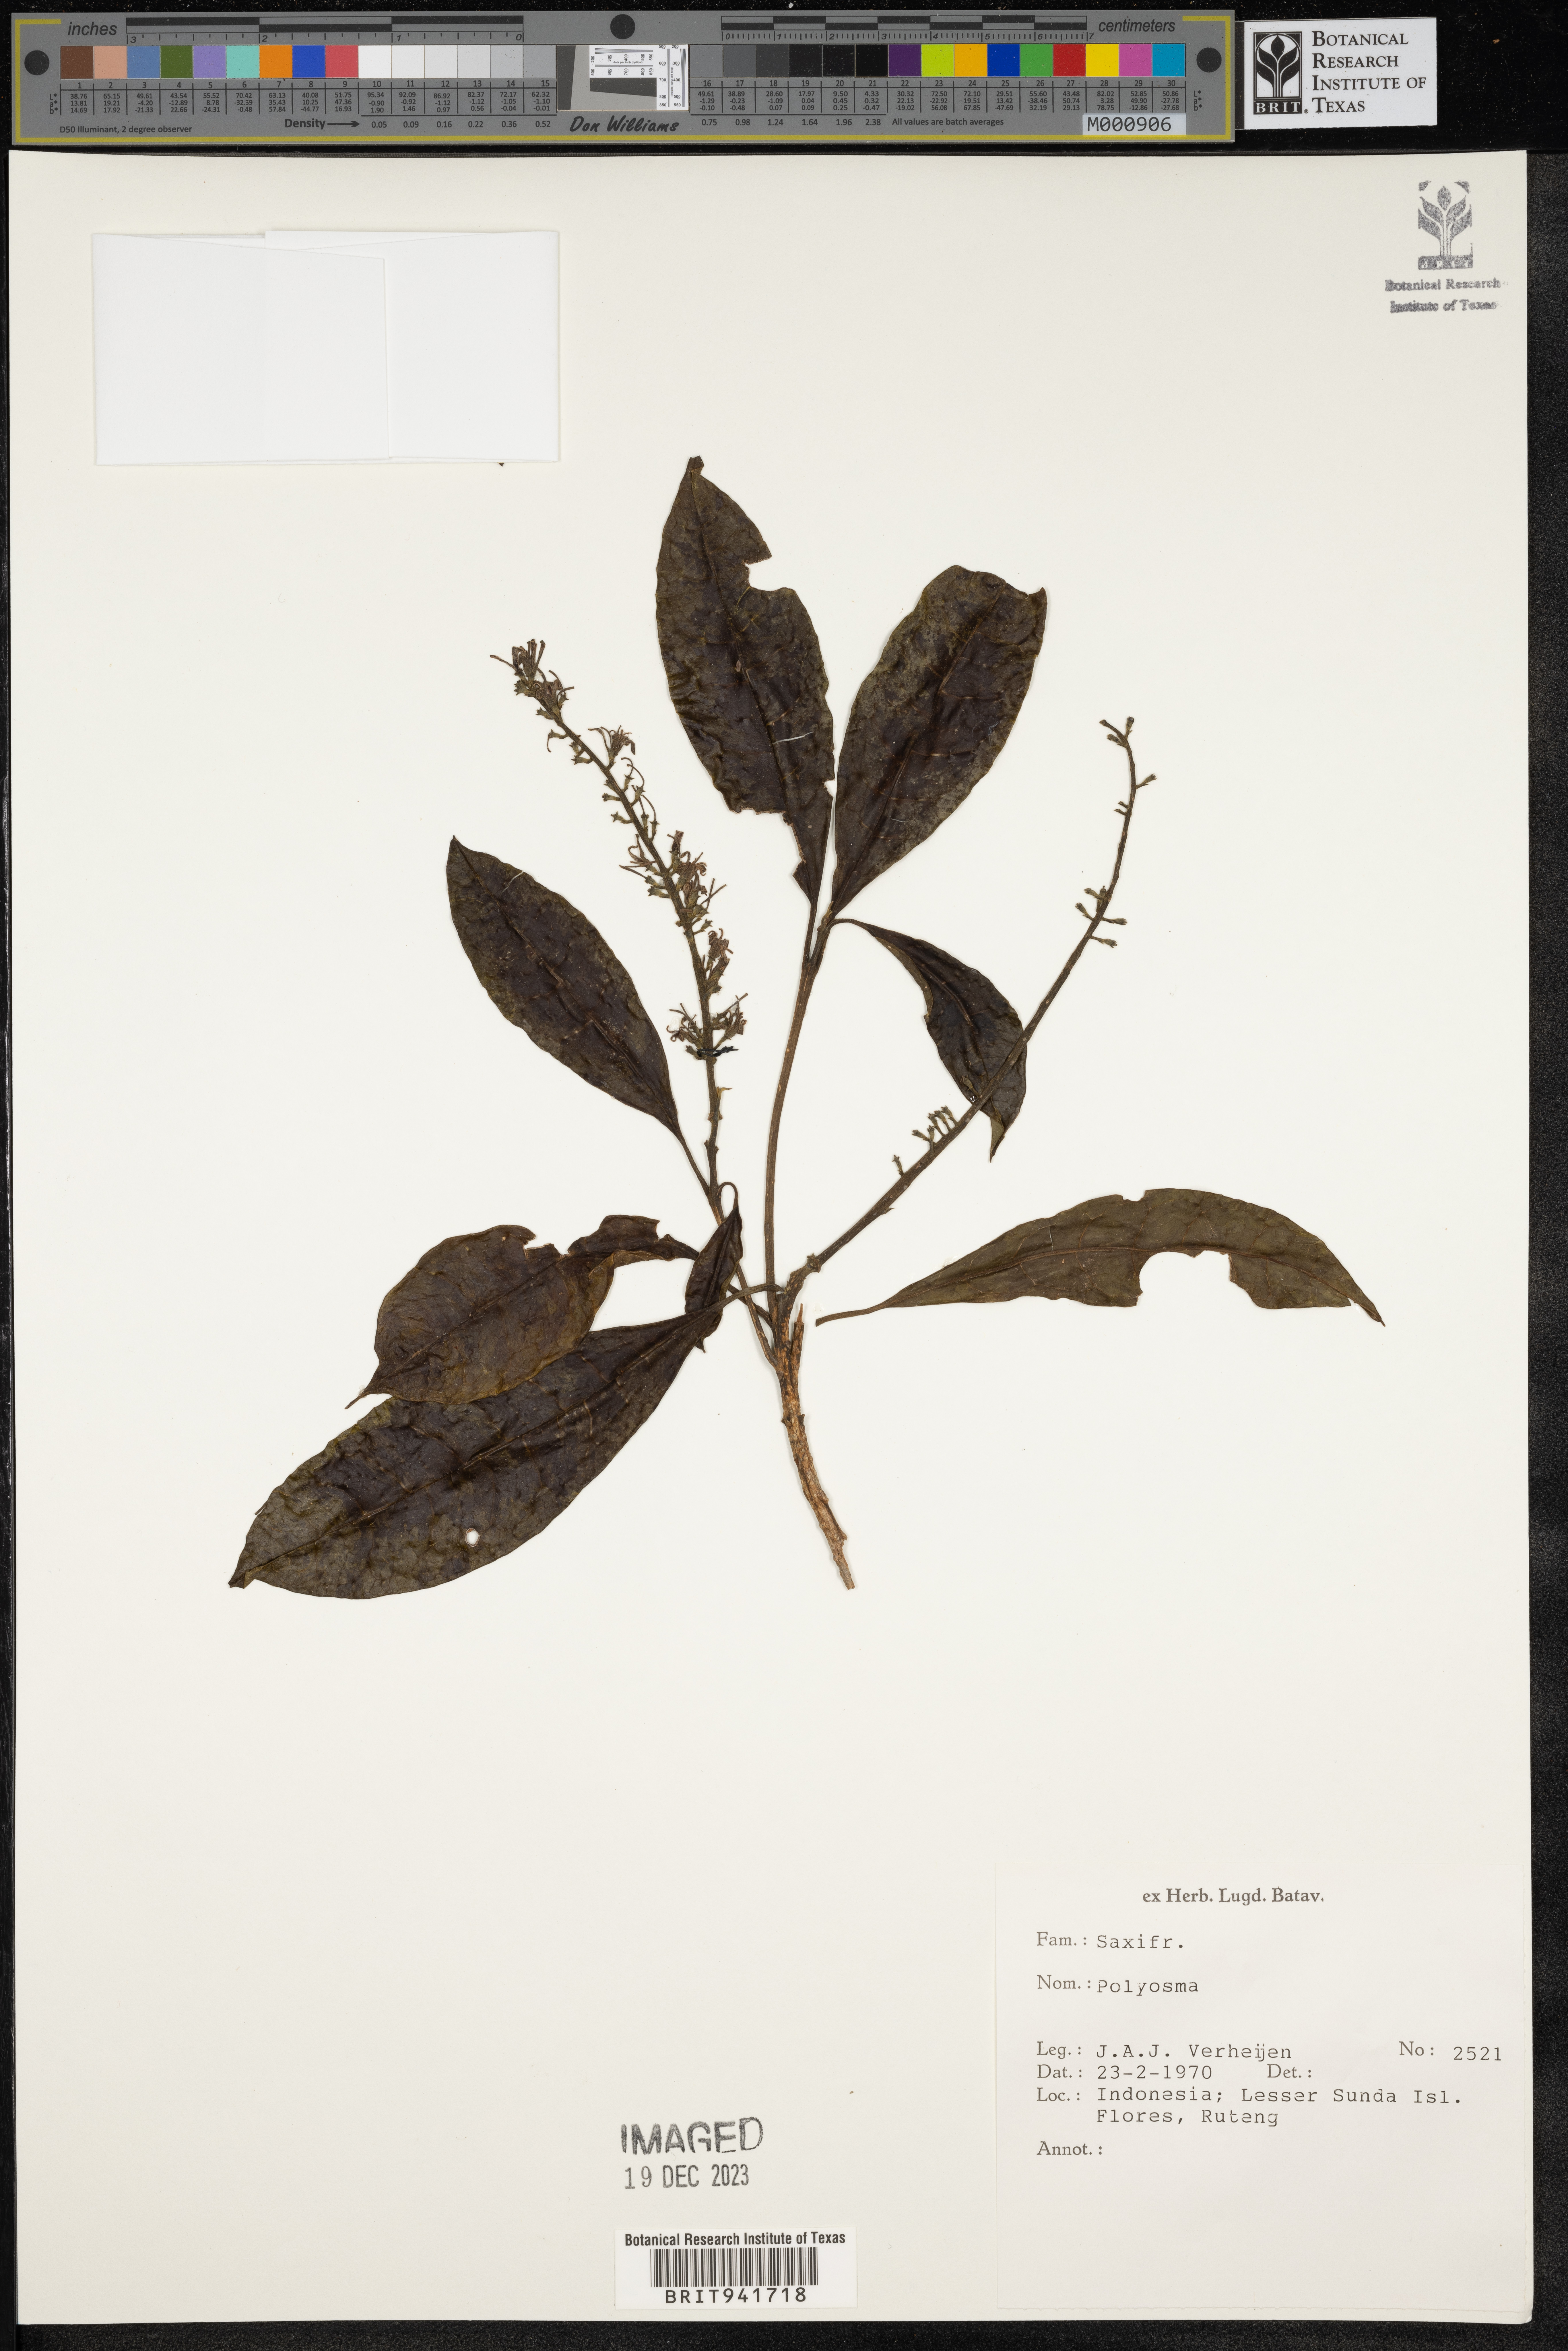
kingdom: Plantae
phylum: Tracheophyta
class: Magnoliopsida
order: Escalloniales
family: Escalloniaceae
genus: Polyosma
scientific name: Polyosma
